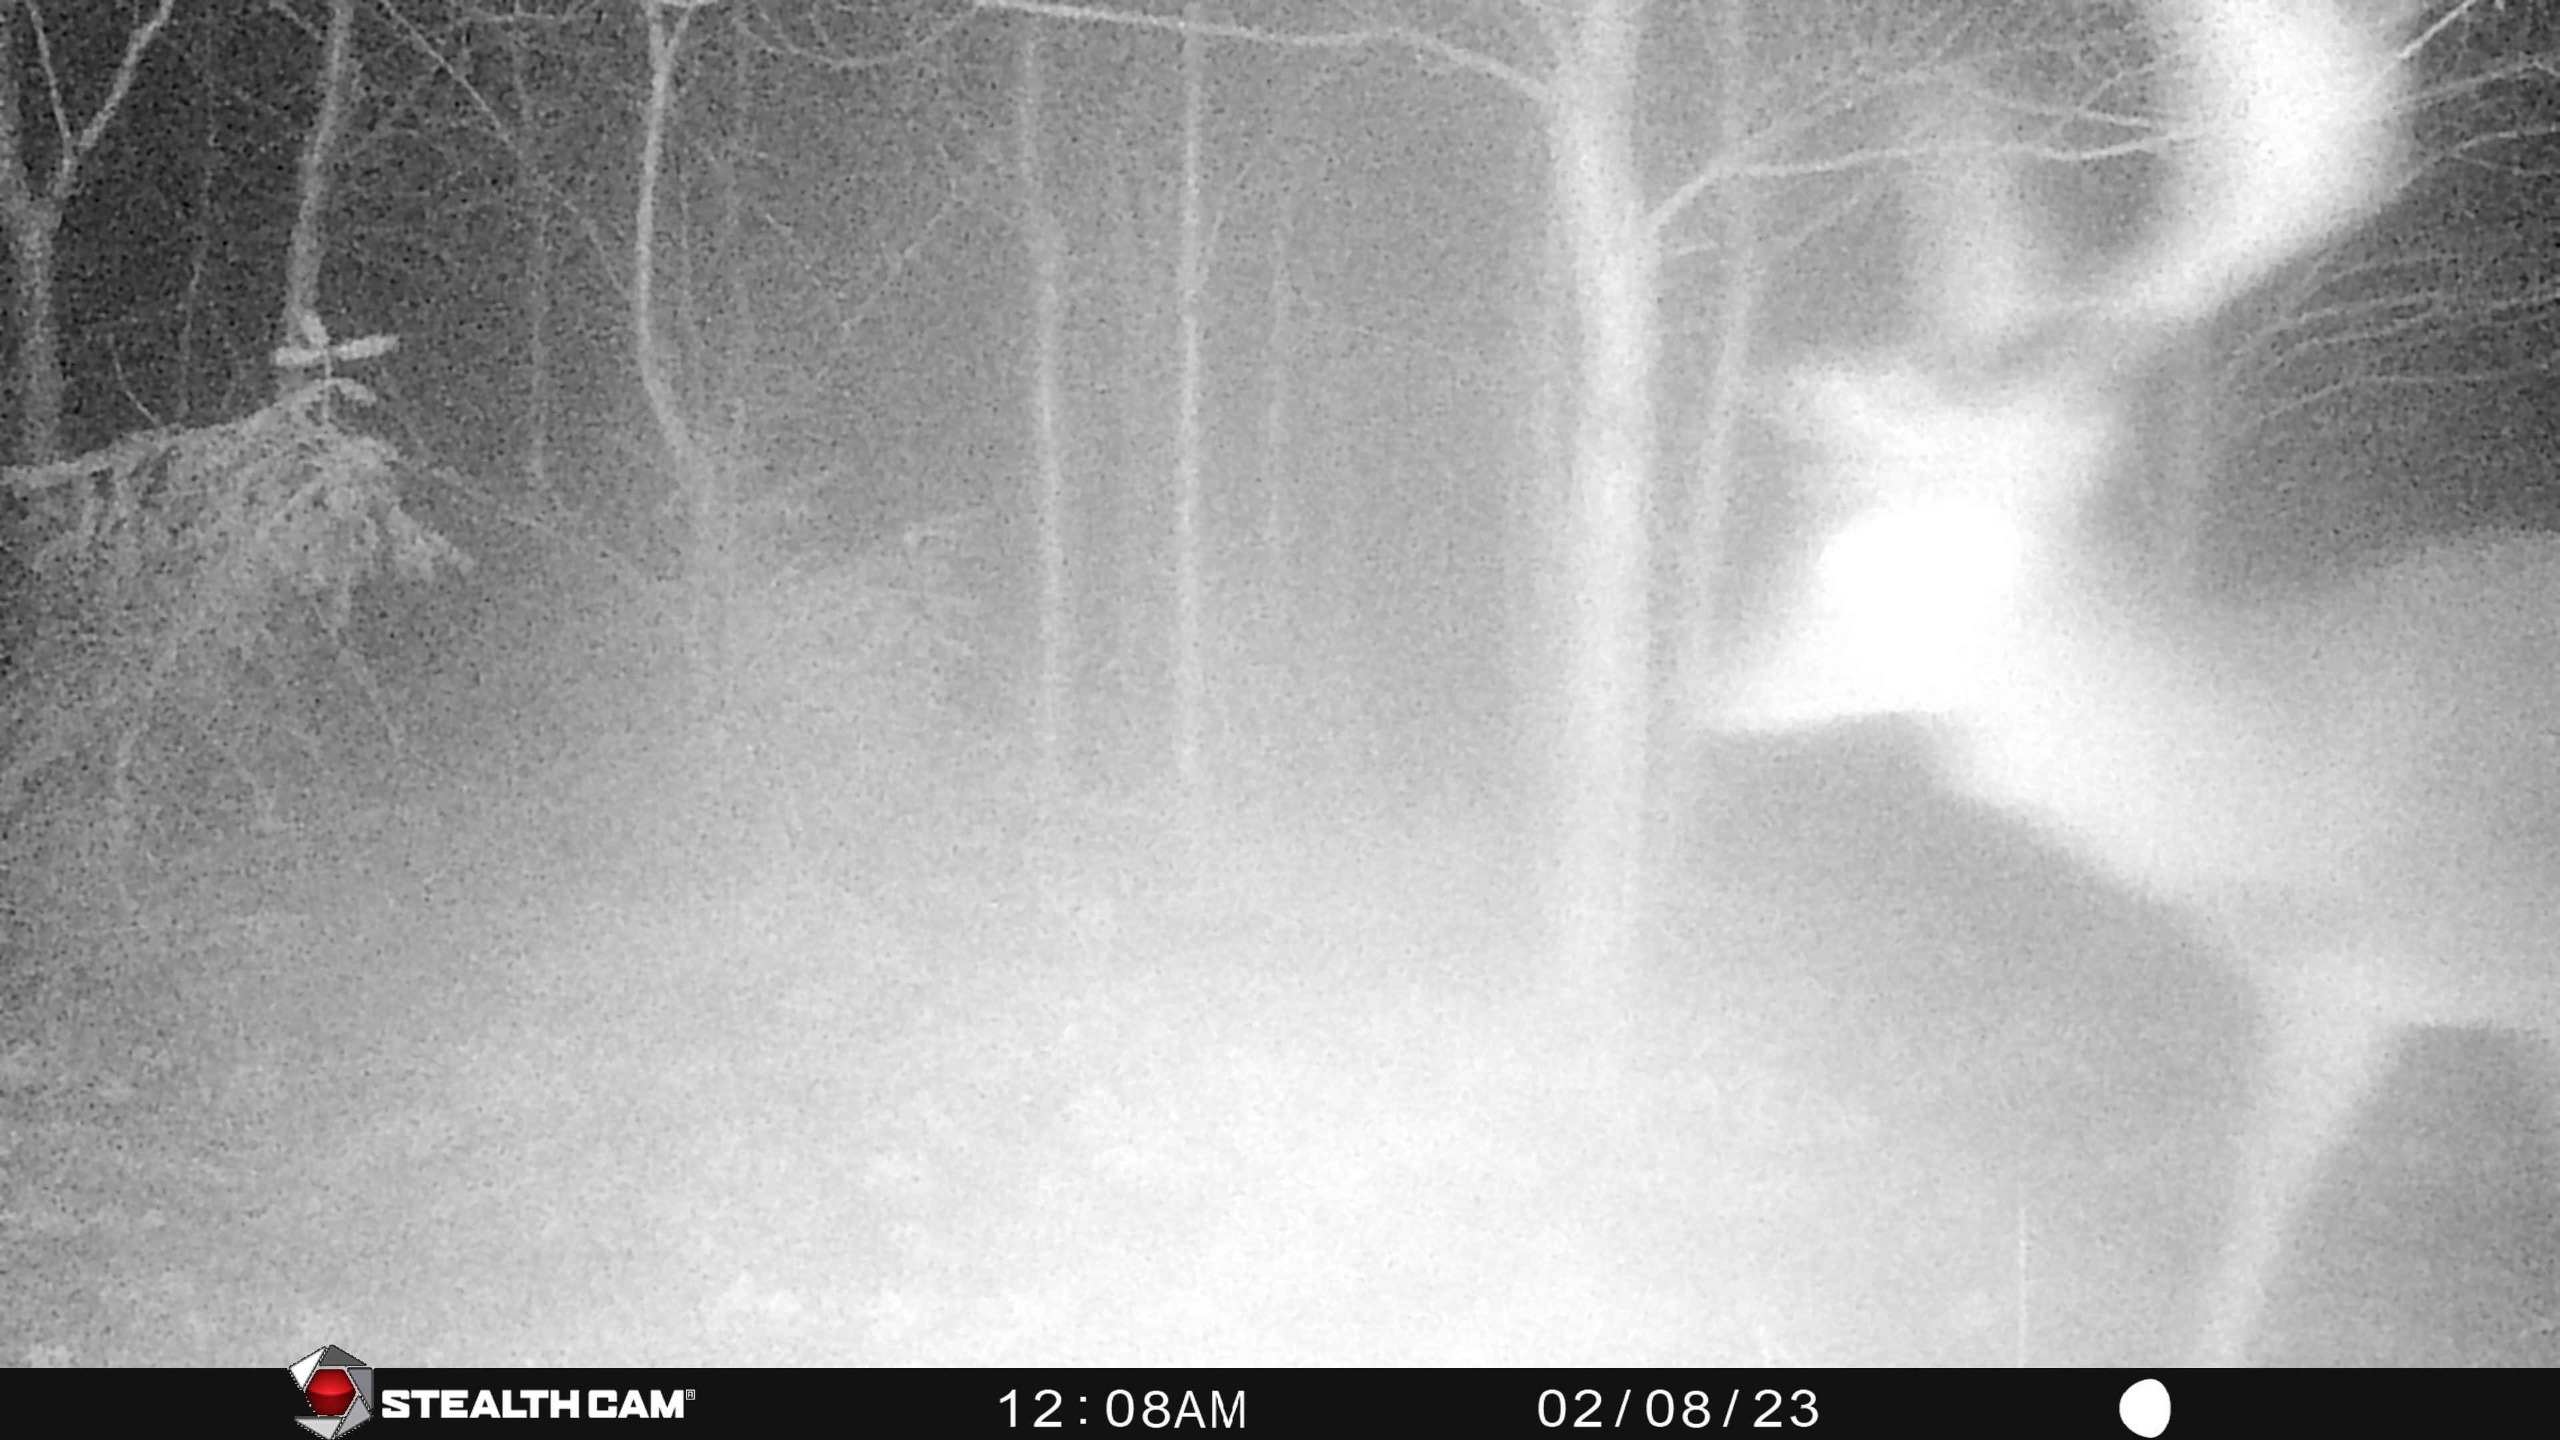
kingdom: Animalia
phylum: Chordata
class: Mammalia
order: Artiodactyla
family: Cervidae
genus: Dama
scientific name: Dama dama
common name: Dådyr
